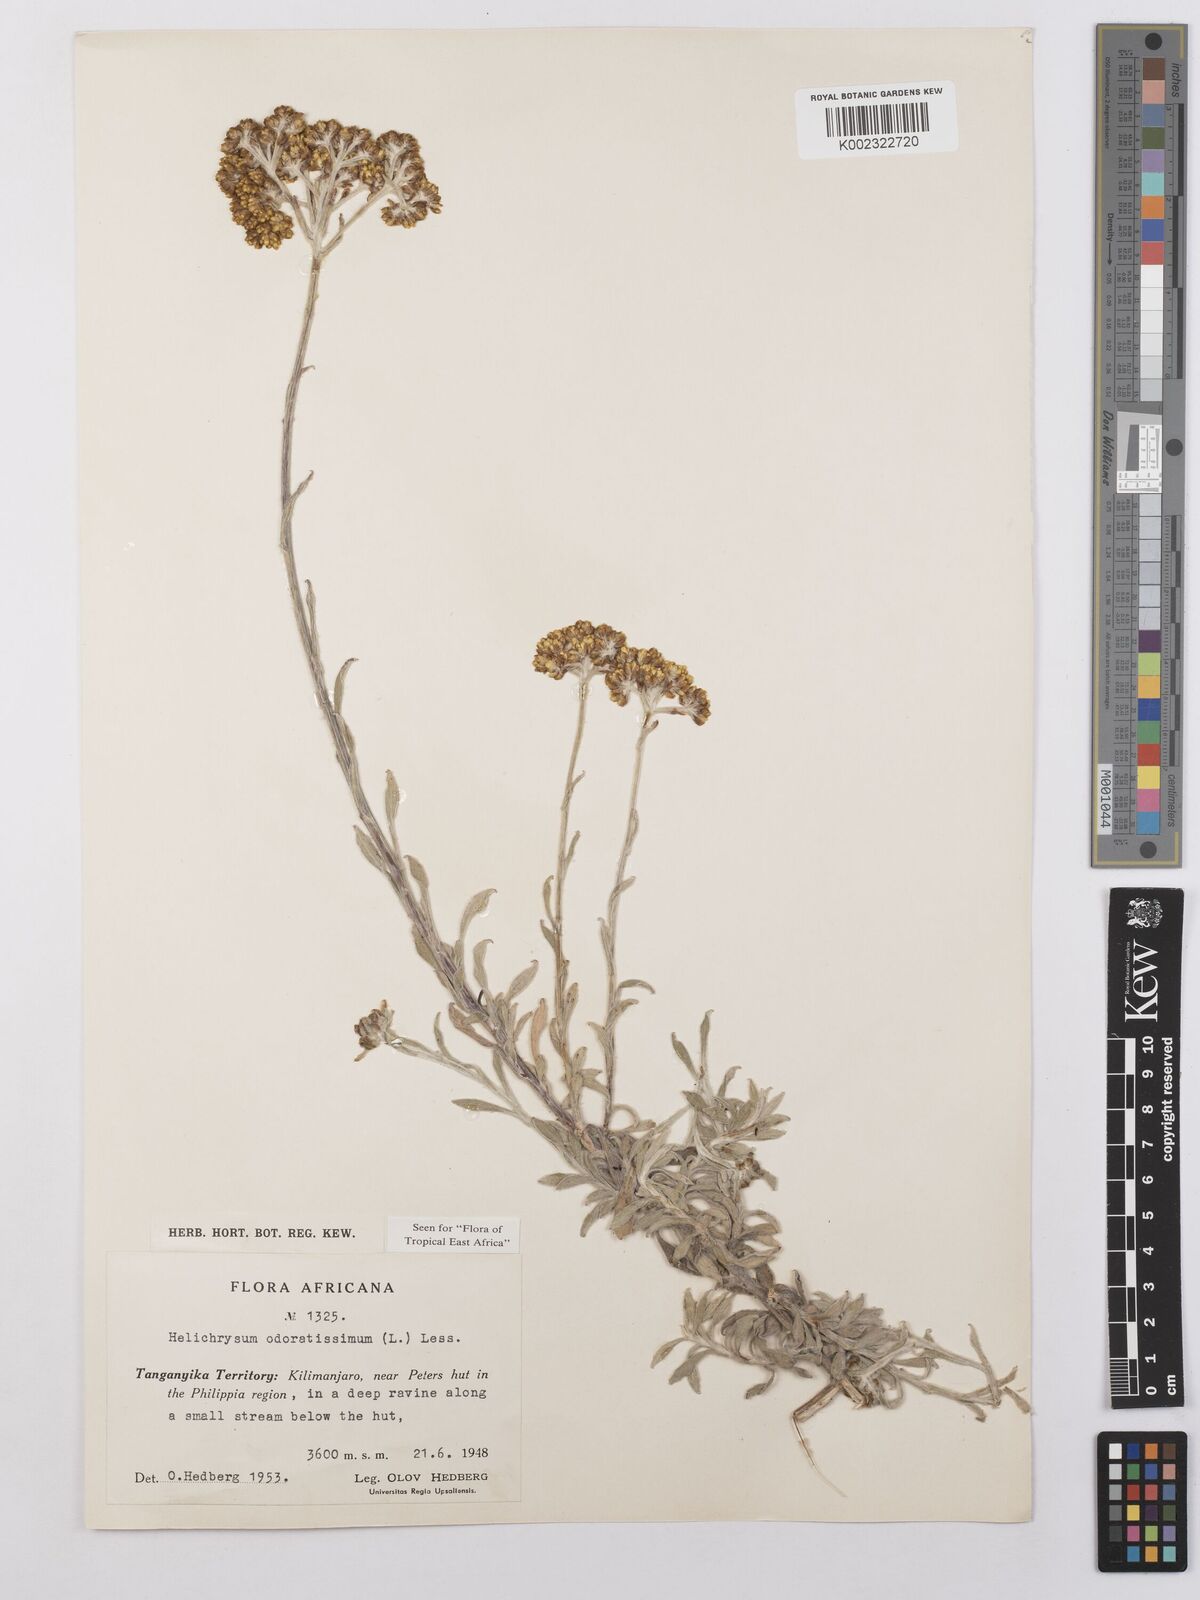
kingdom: Plantae
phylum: Tracheophyta
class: Magnoliopsida
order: Asterales
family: Asteraceae
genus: Helichrysum
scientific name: Helichrysum odoratissimum
